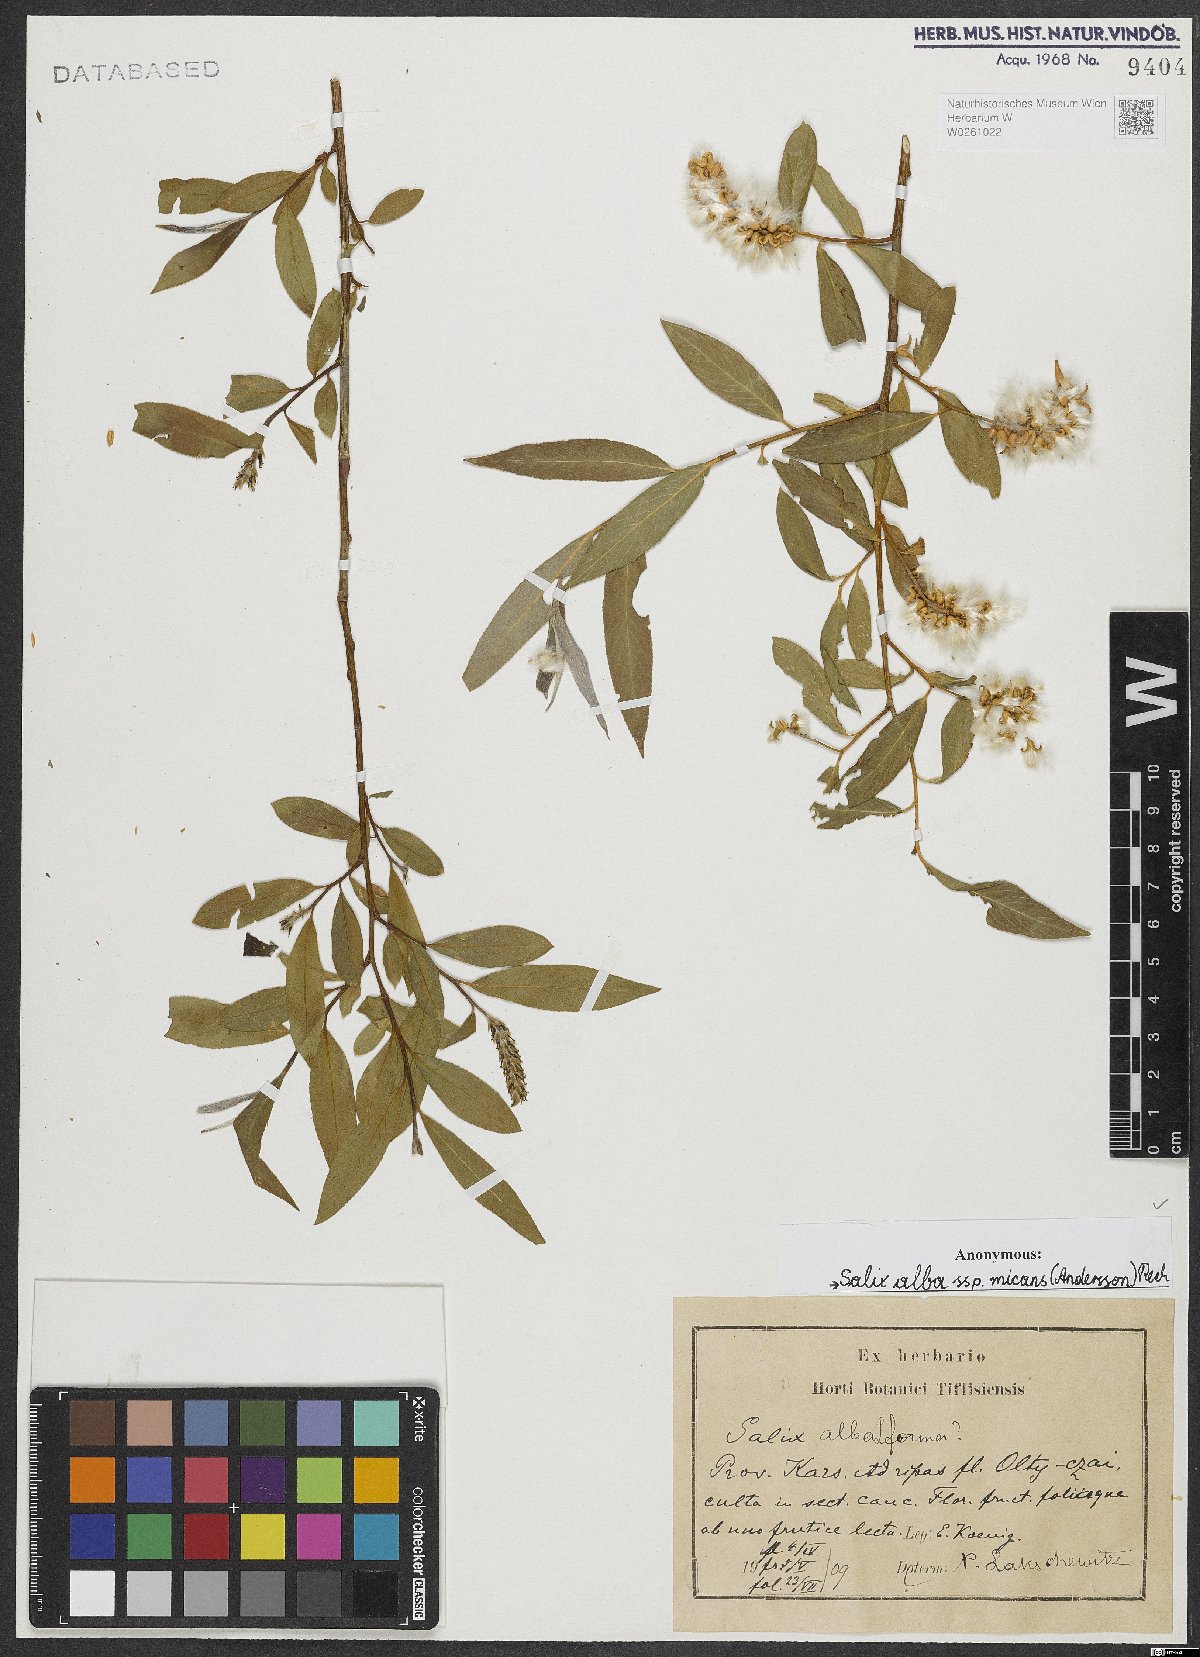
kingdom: Plantae
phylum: Tracheophyta
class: Magnoliopsida
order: Malpighiales
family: Salicaceae
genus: Salix
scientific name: Salix alba
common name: White willow
